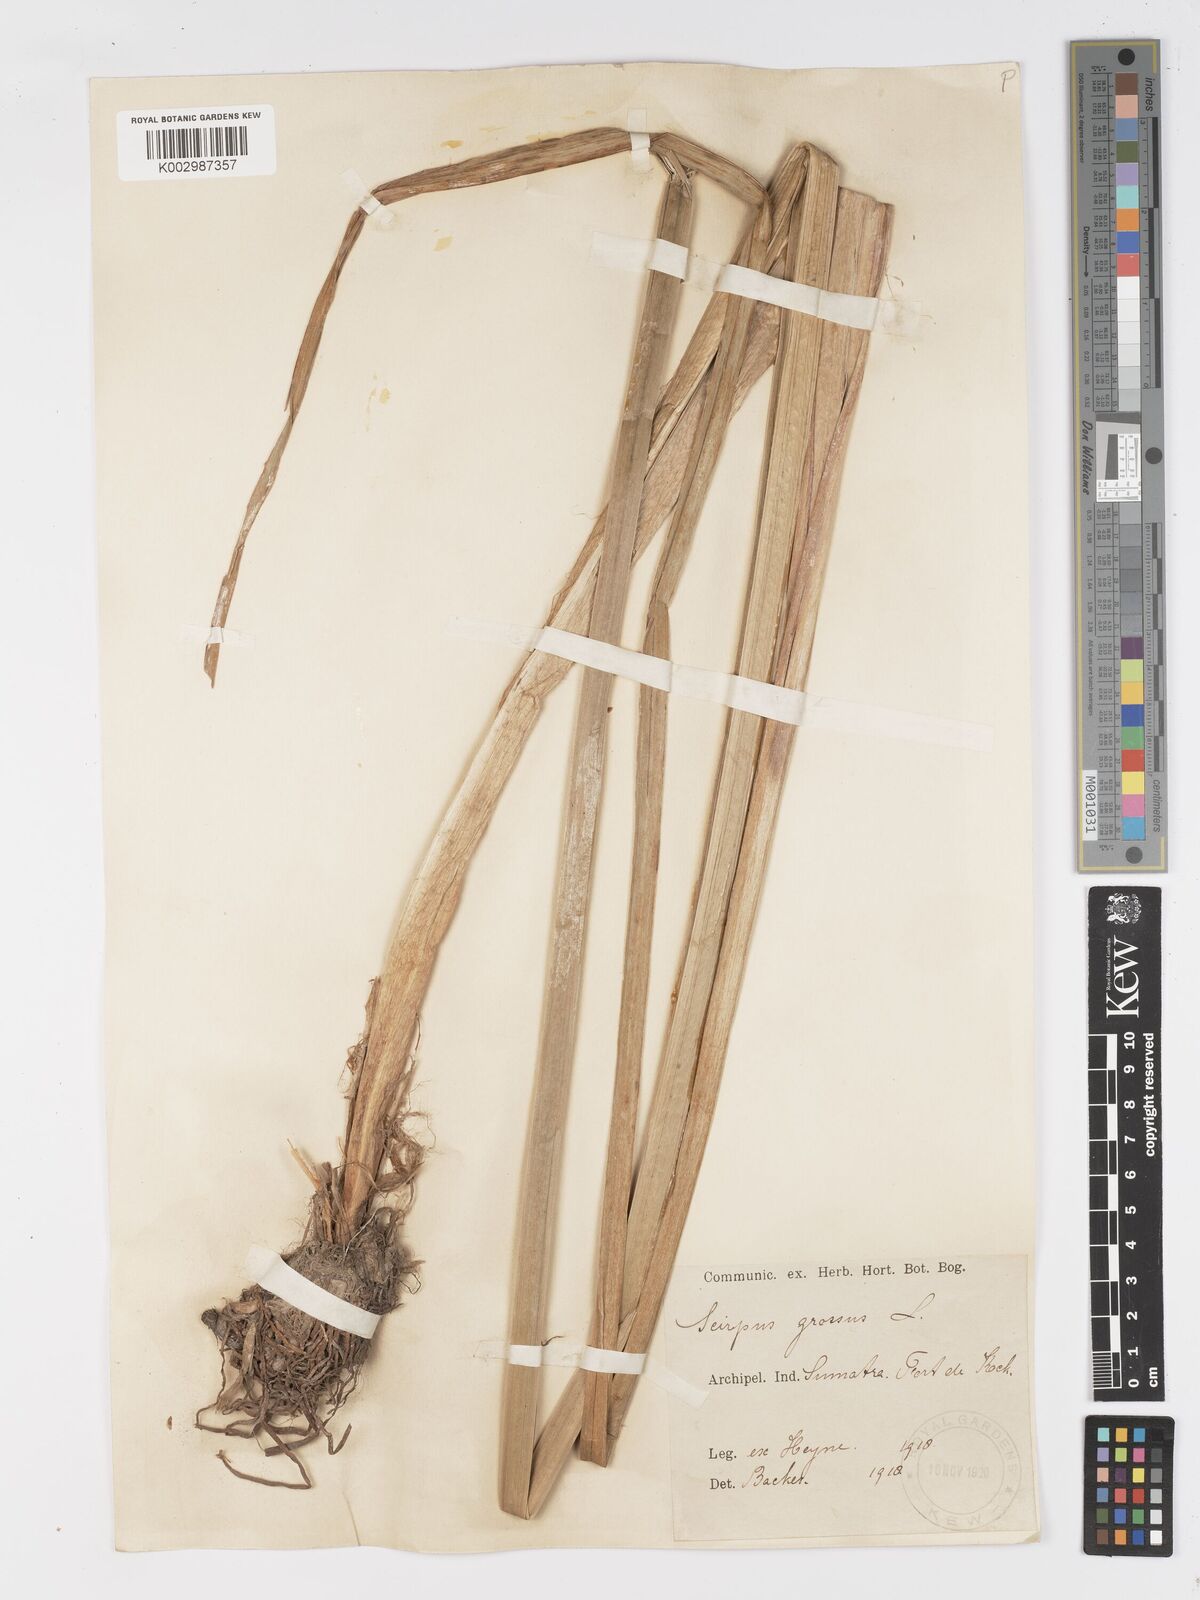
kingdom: Plantae
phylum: Tracheophyta
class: Liliopsida
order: Poales
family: Cyperaceae
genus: Actinoscirpus
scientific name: Actinoscirpus grossus
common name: Giant bur rush
